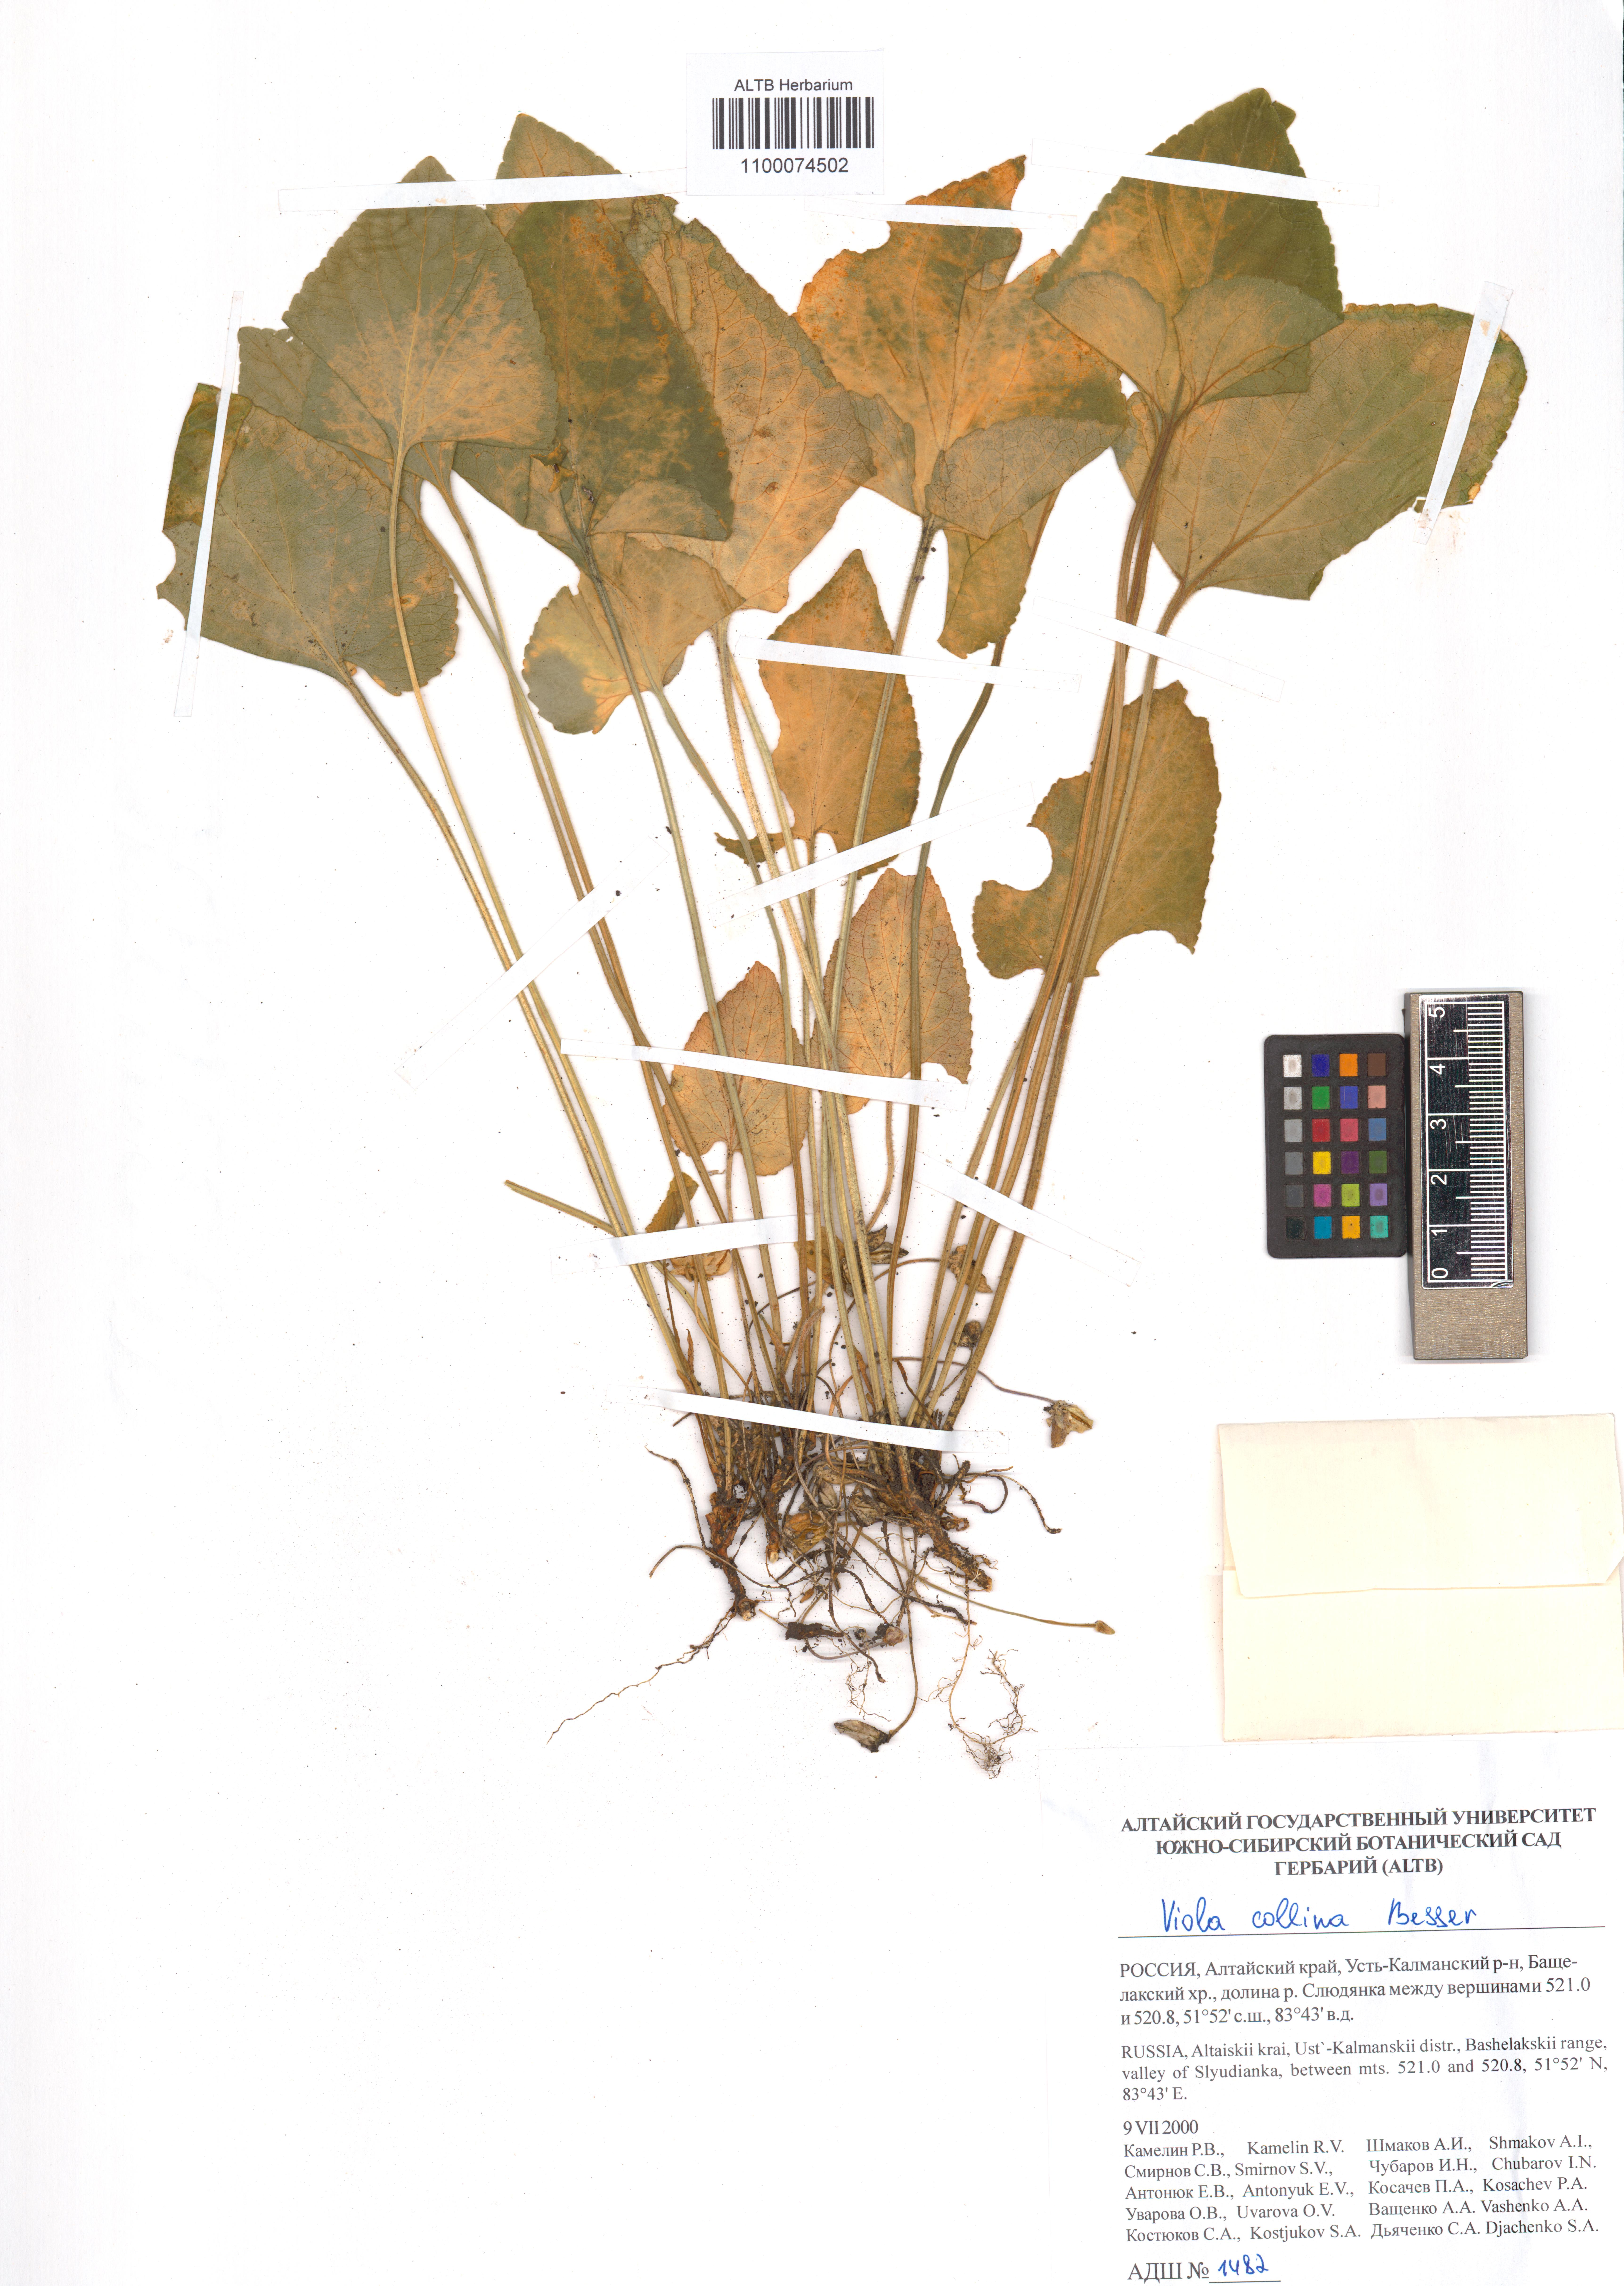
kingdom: Plantae
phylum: Tracheophyta
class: Magnoliopsida
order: Malpighiales
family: Violaceae
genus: Viola
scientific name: Viola collina
